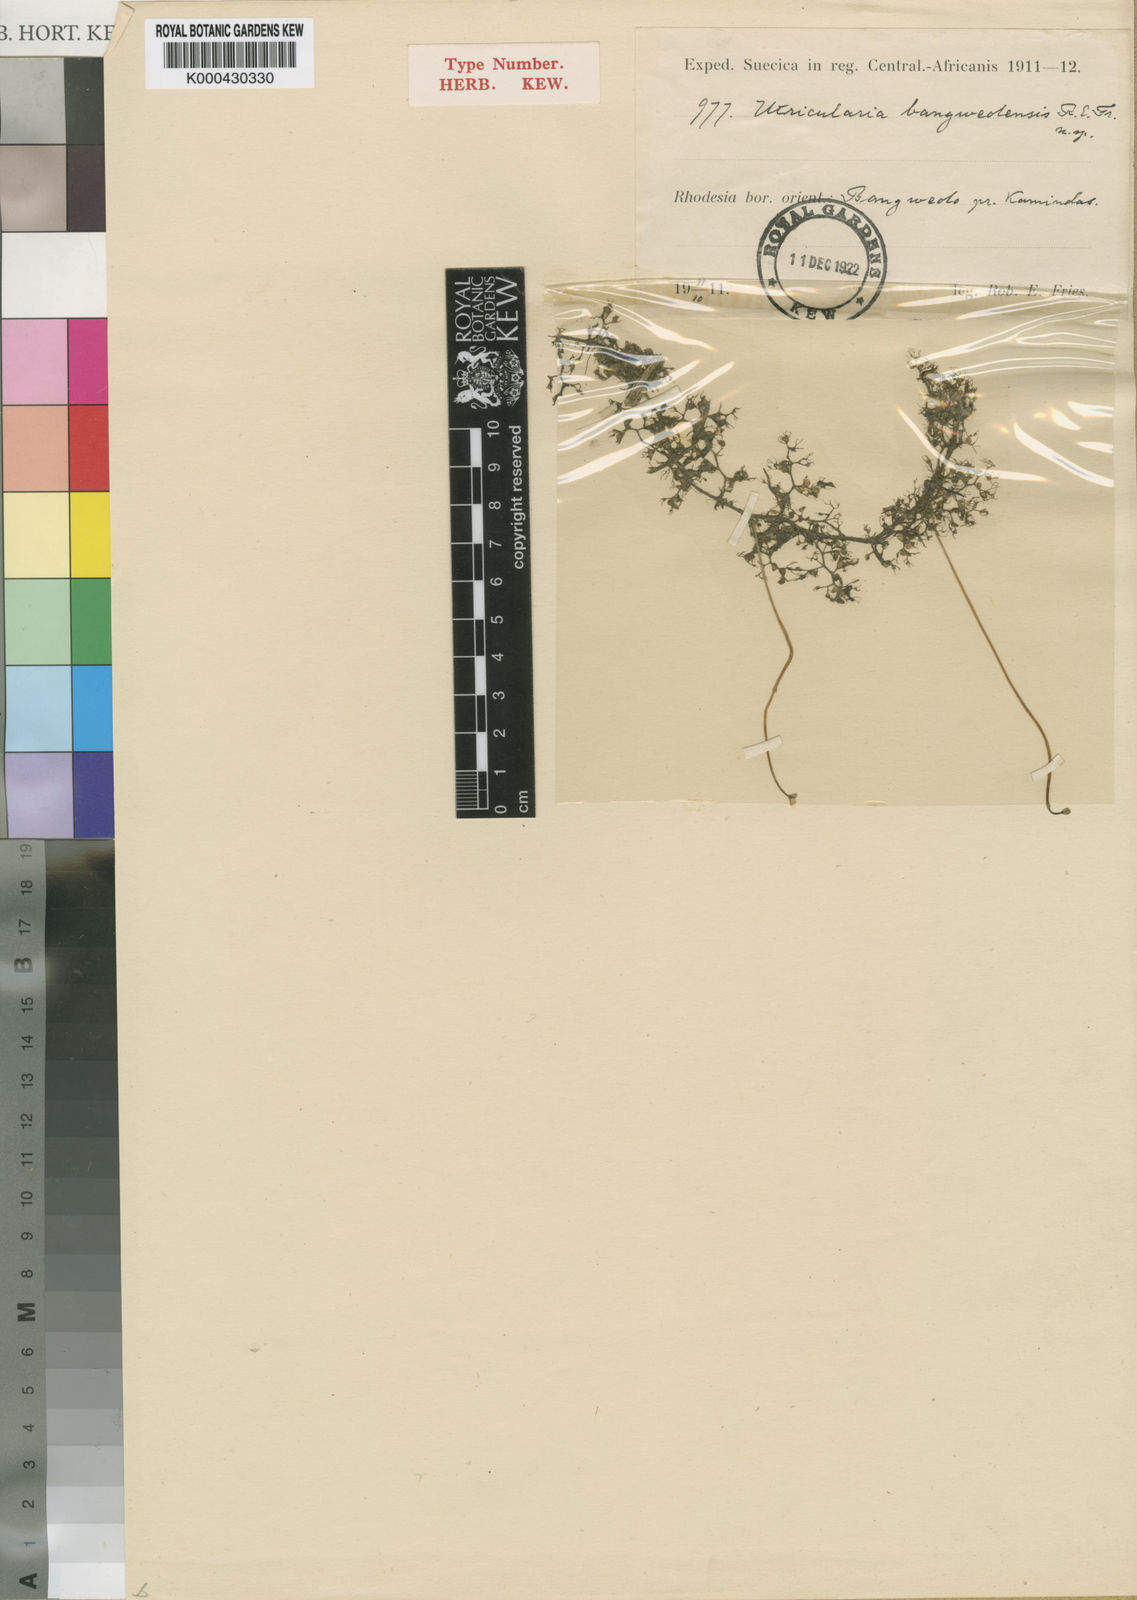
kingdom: Plantae
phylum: Tracheophyta
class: Magnoliopsida
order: Lamiales
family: Lentibulariaceae
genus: Utricularia
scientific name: Utricularia reflexa
